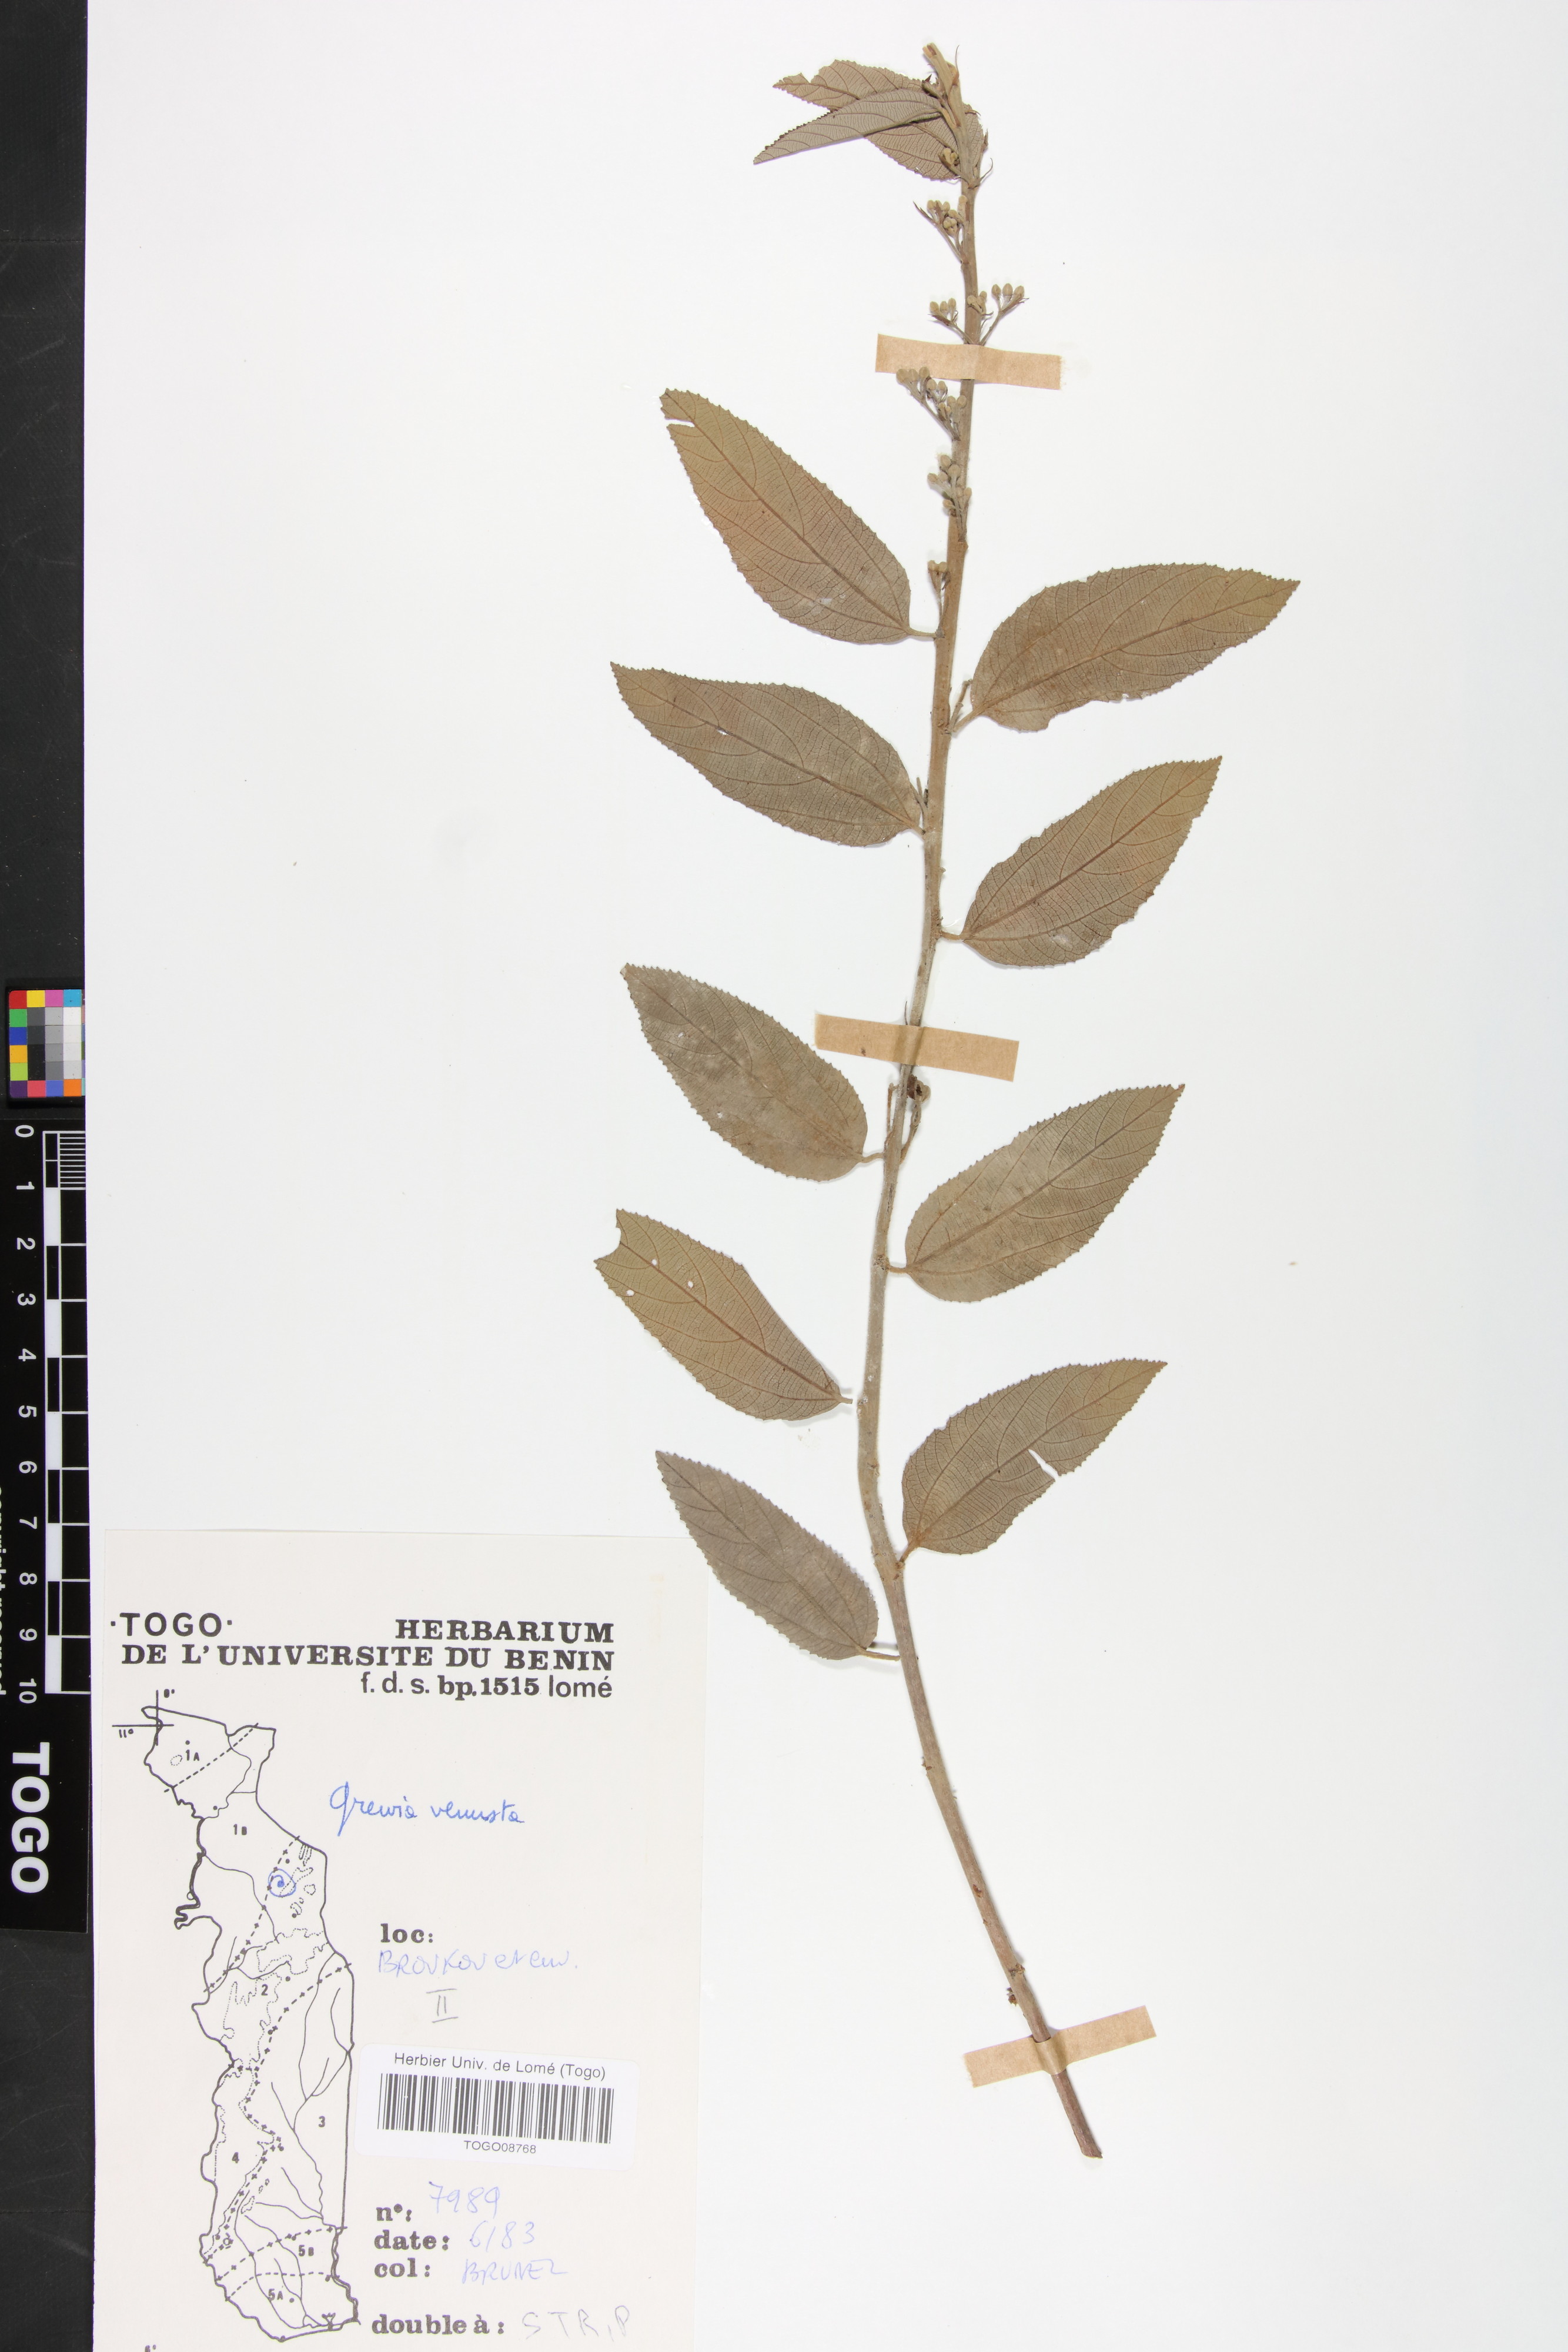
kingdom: Plantae
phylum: Tracheophyta
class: Magnoliopsida
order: Malvales
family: Malvaceae
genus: Grewia
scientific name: Grewia mollis
